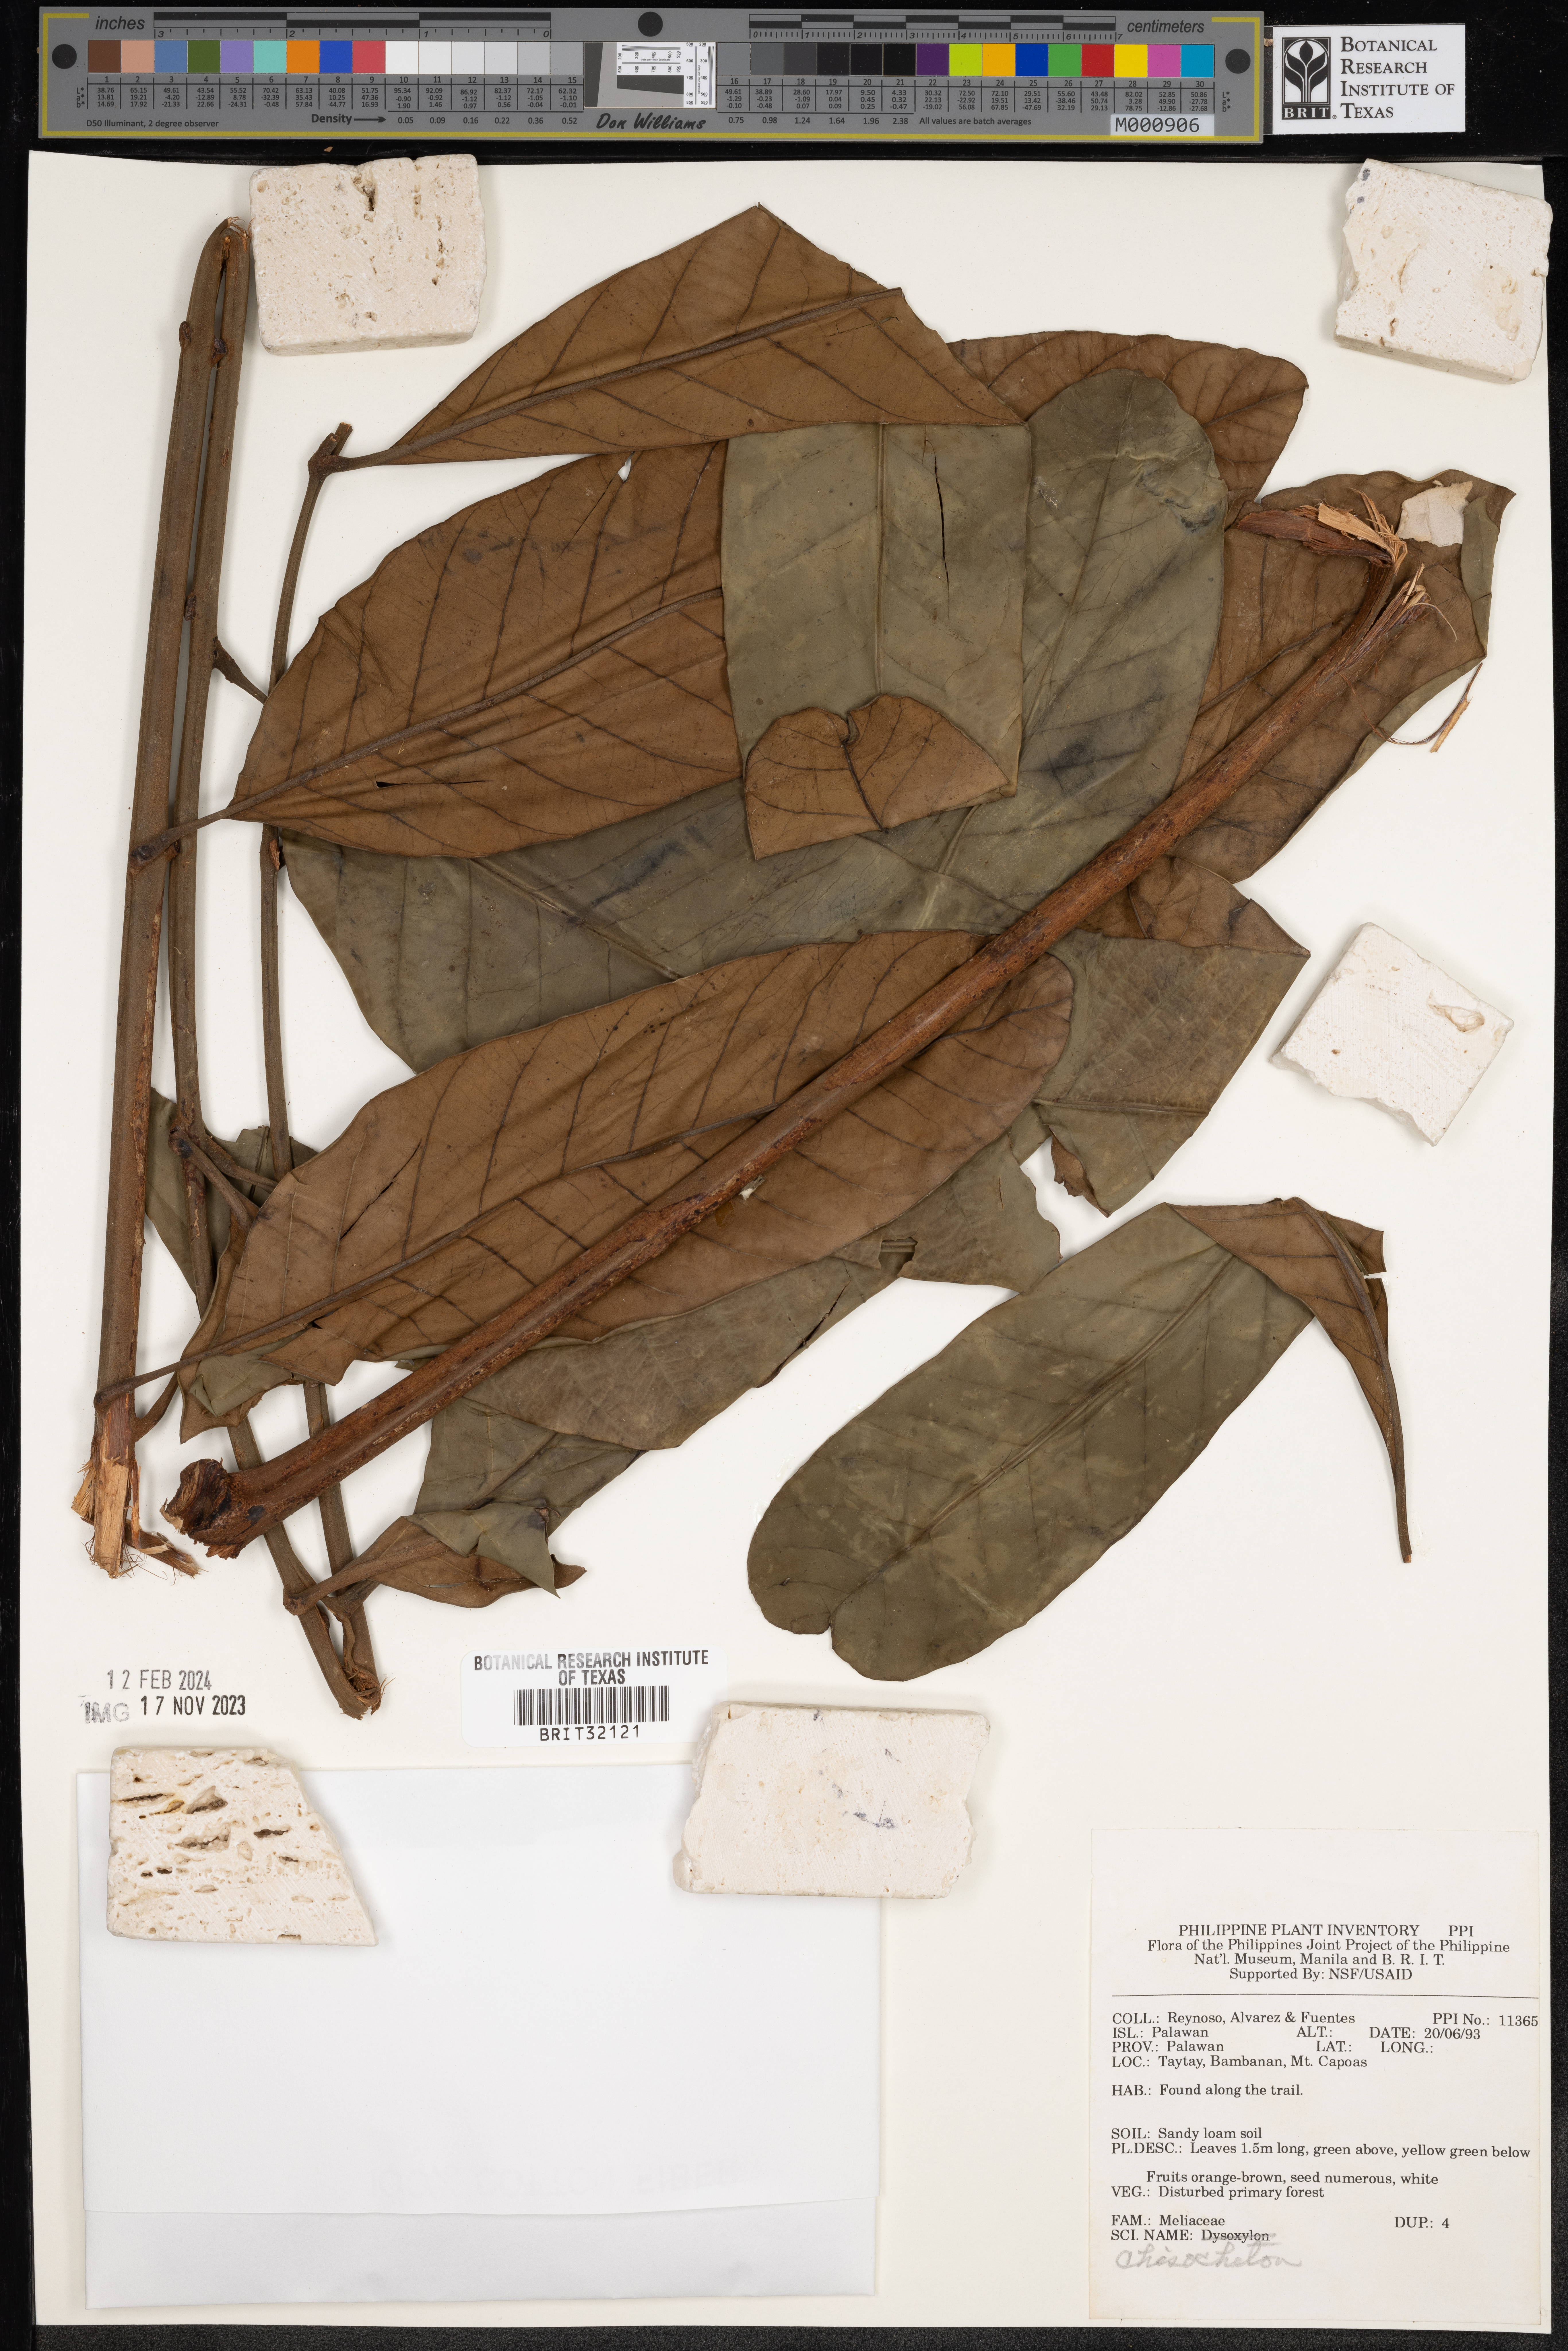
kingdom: Plantae
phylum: Tracheophyta
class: Magnoliopsida
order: Sapindales
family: Meliaceae
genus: Chisocheton
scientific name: Chisocheton
